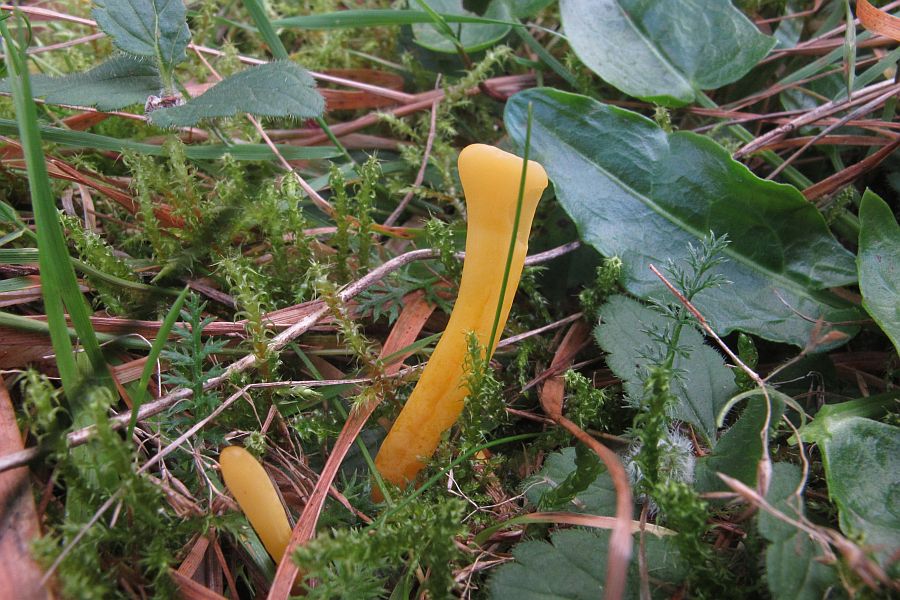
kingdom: Fungi
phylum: Basidiomycota
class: Agaricomycetes
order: Agaricales
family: Clavariaceae
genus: Clavulinopsis
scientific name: Clavulinopsis helvola
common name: orangegul køllesvamp
